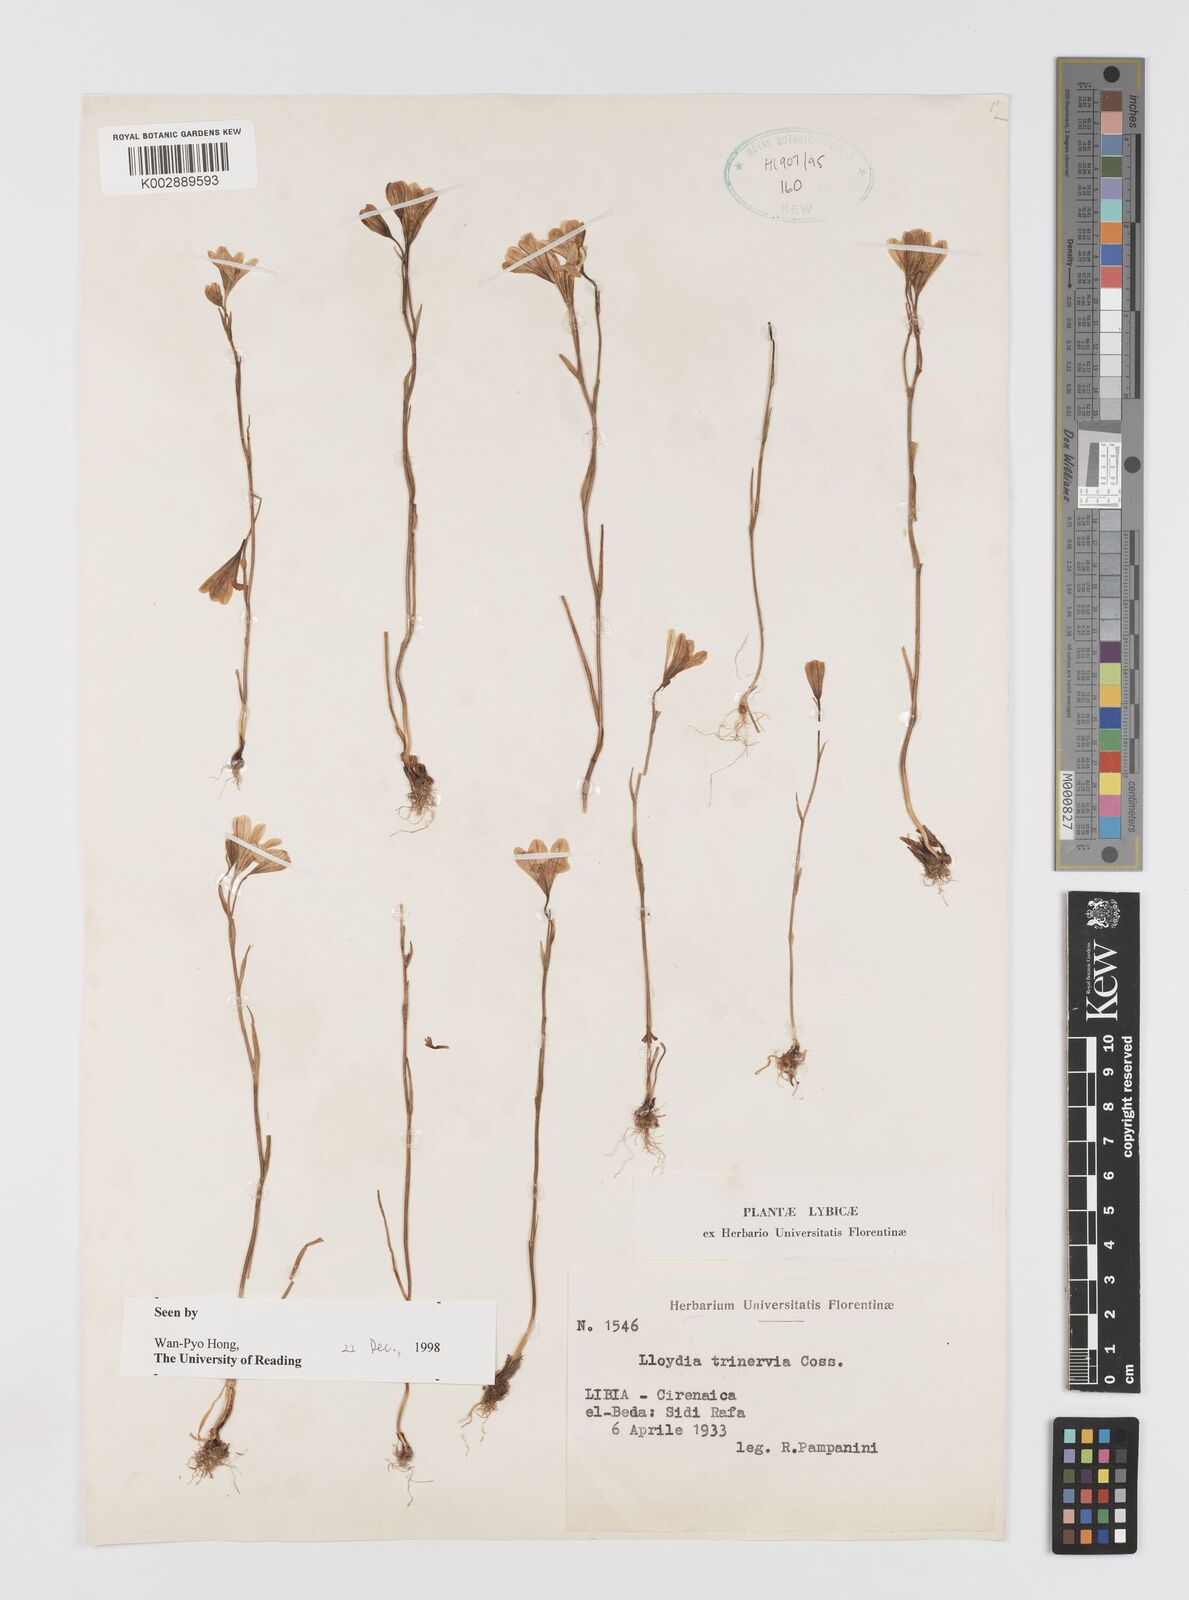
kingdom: Plantae
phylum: Tracheophyta
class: Liliopsida
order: Liliales
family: Liliaceae
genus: Gagea
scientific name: Gagea trinervia
